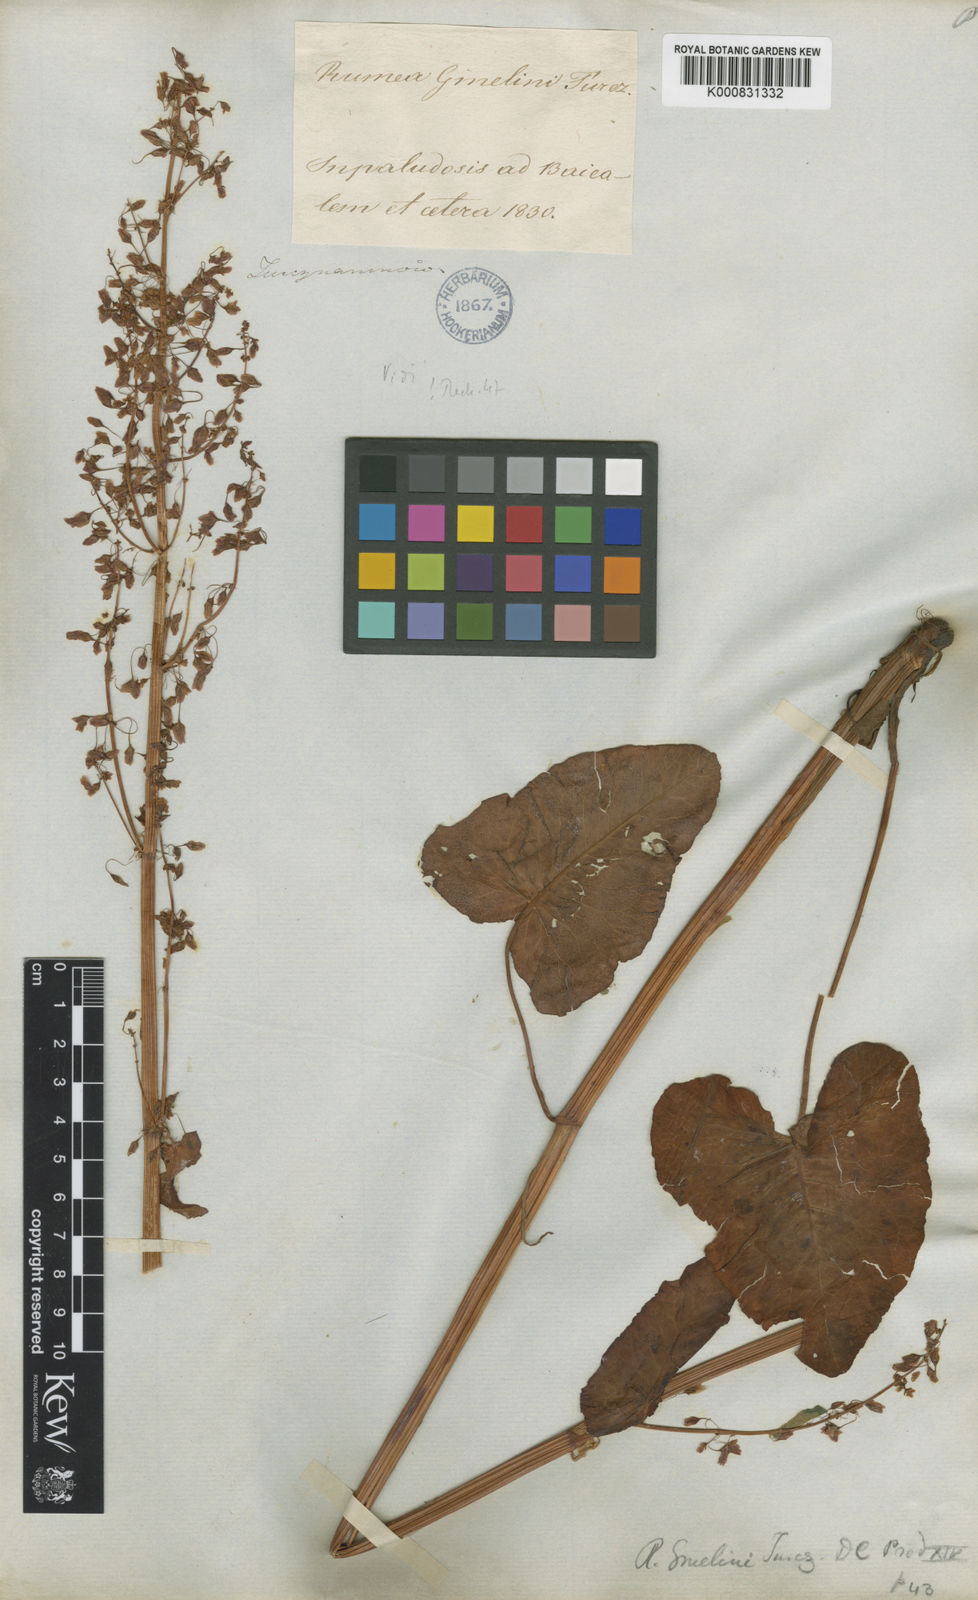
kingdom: Plantae
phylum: Tracheophyta
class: Magnoliopsida
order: Caryophyllales
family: Polygonaceae
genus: Rumex
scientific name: Rumex
